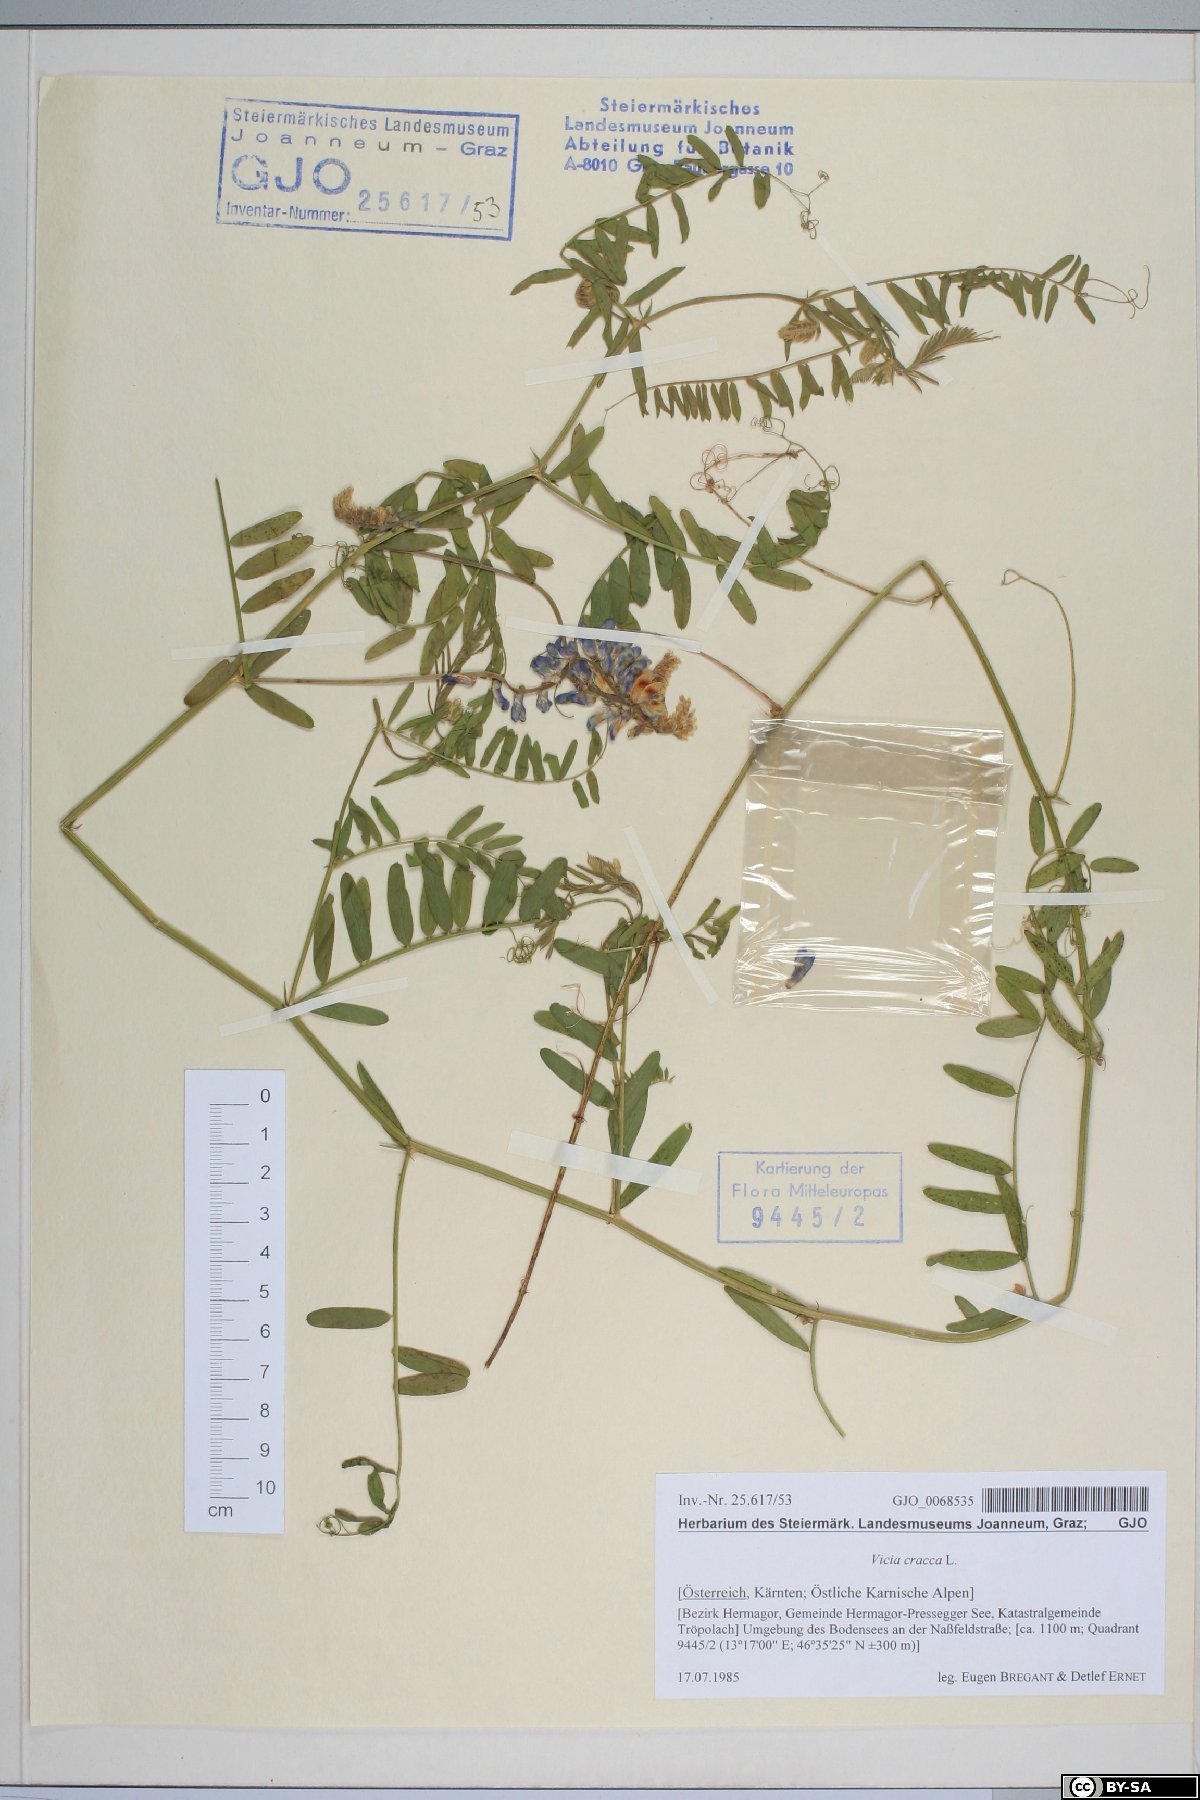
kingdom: Plantae
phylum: Tracheophyta
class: Magnoliopsida
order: Fabales
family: Fabaceae
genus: Vicia
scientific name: Vicia cracca
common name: Bird vetch
